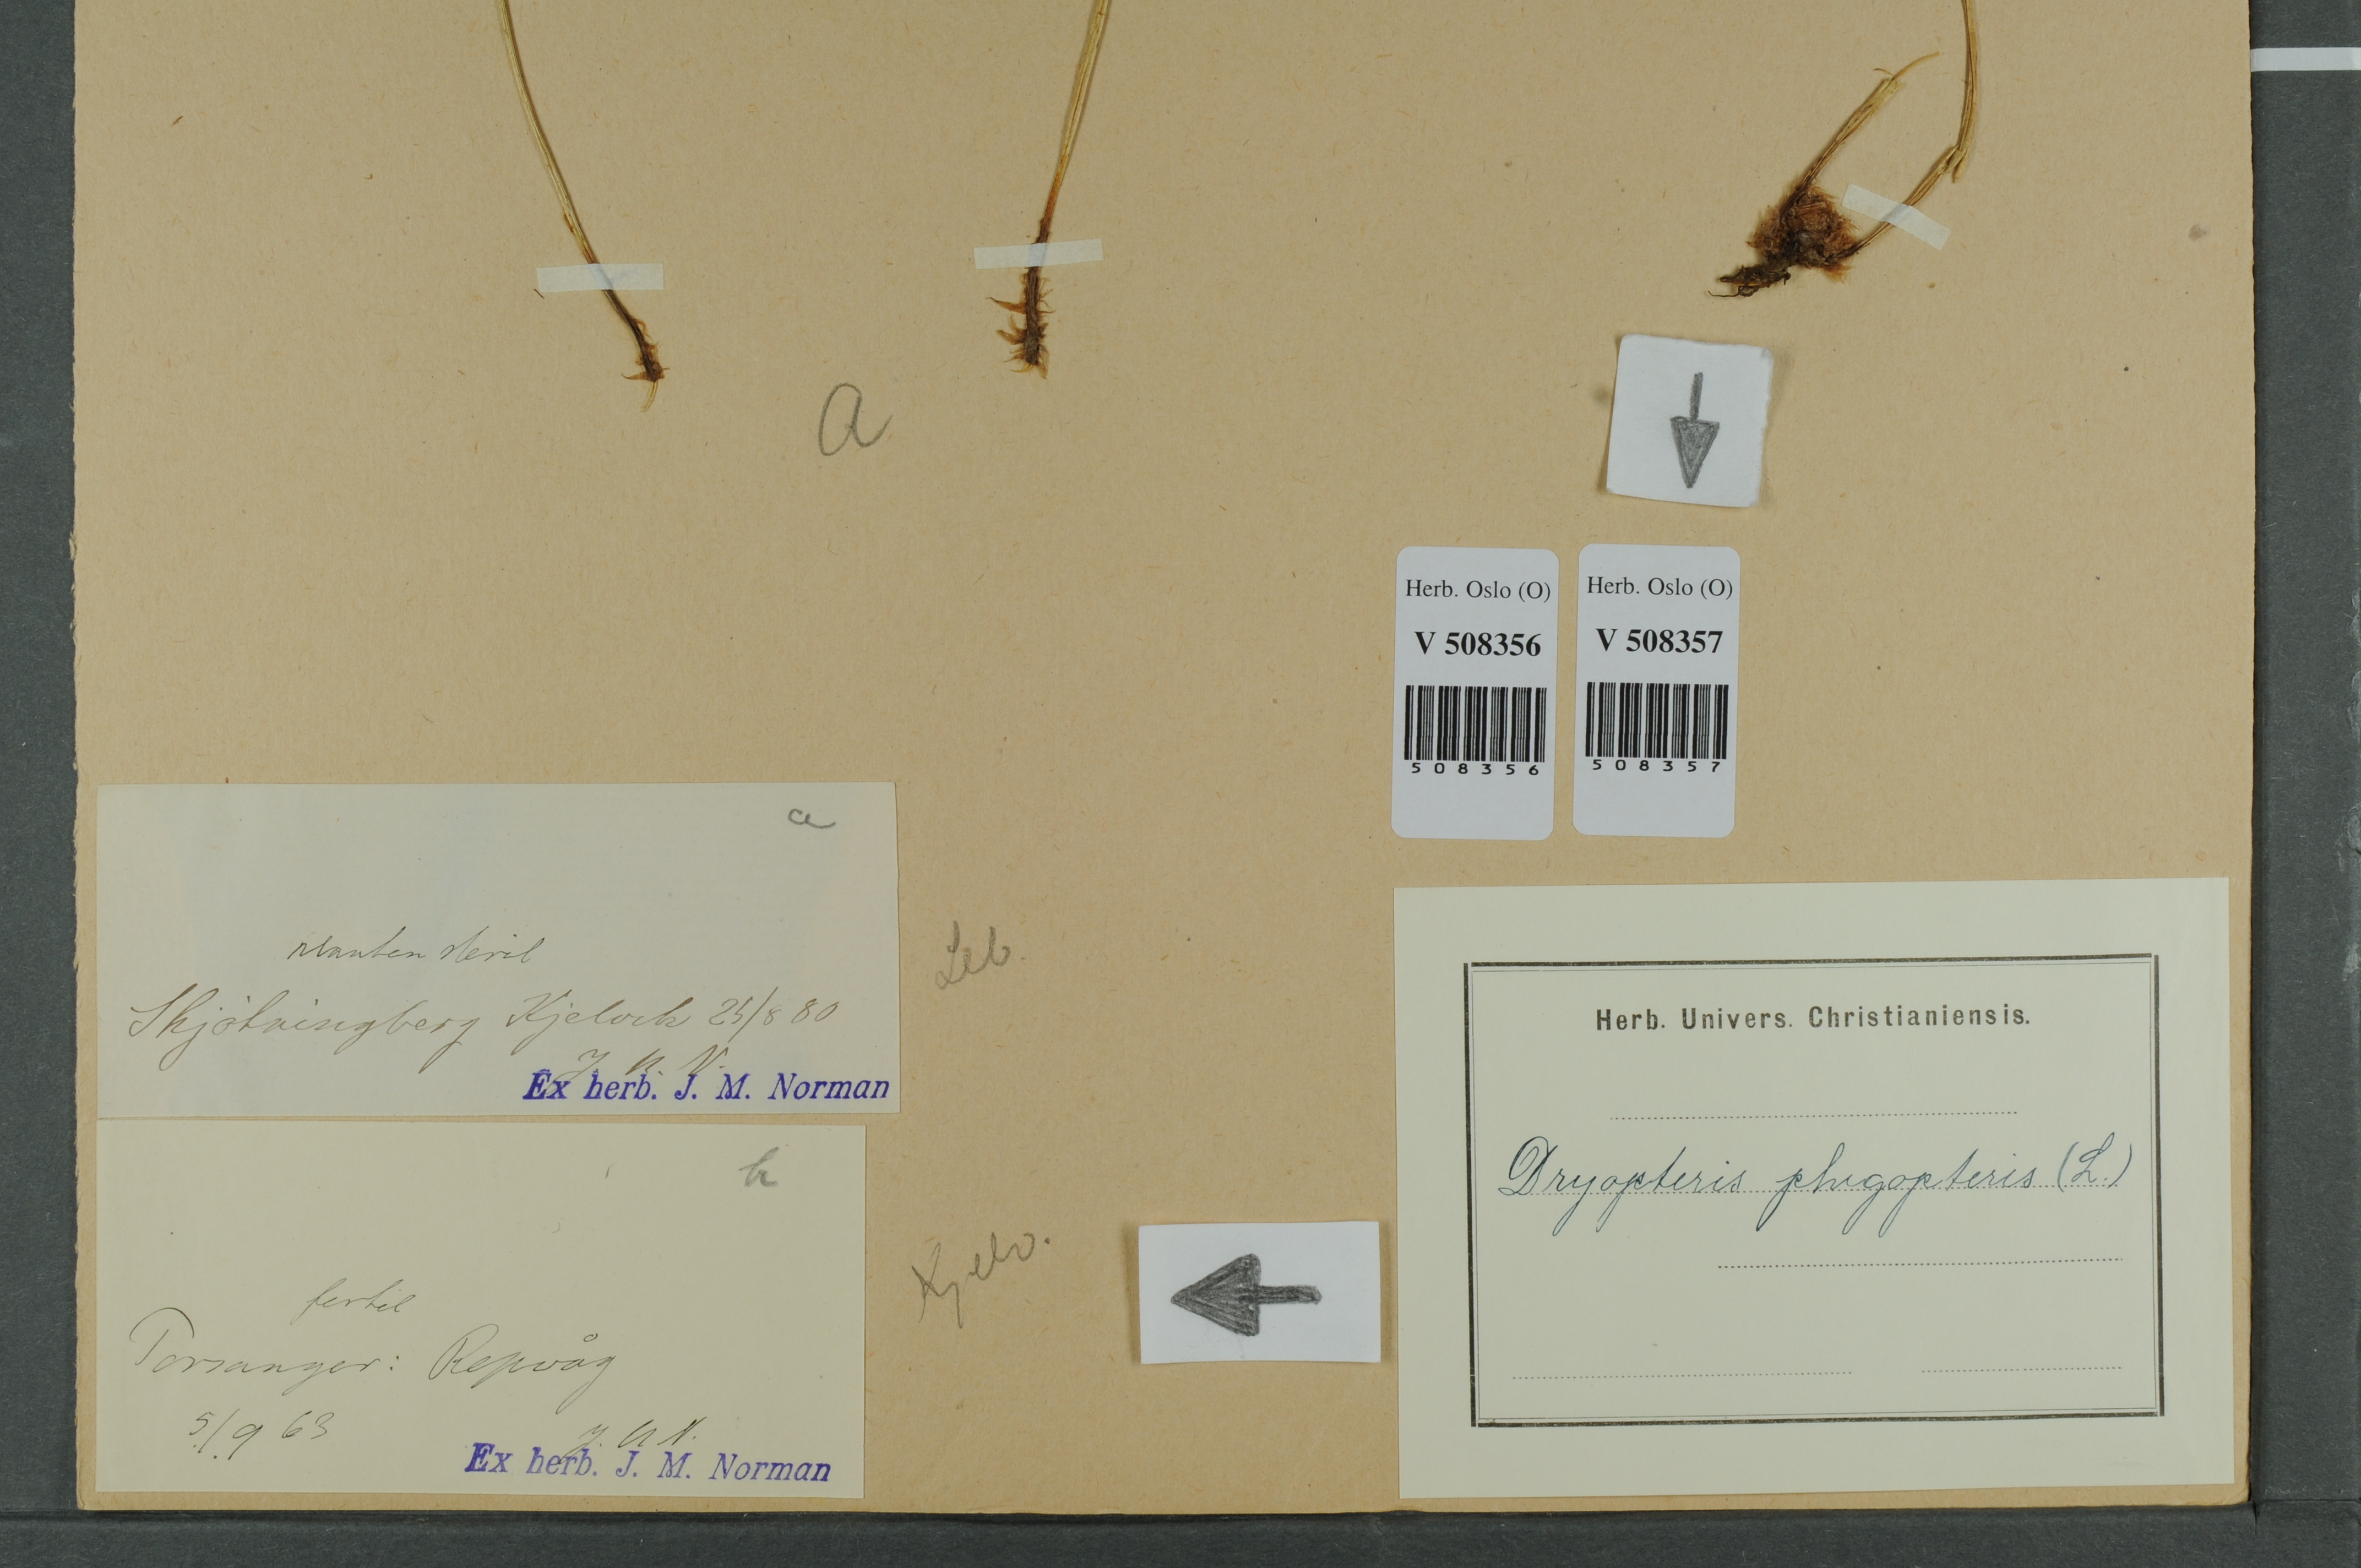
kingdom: Plantae
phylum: Tracheophyta
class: Polypodiopsida
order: Polypodiales
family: Thelypteridaceae
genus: Phegopteris
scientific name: Phegopteris connectilis
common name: Beech fern
